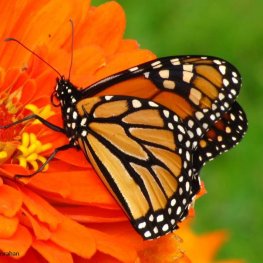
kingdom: Animalia
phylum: Arthropoda
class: Insecta
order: Lepidoptera
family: Nymphalidae
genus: Danaus
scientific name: Danaus plexippus
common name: Monarch
